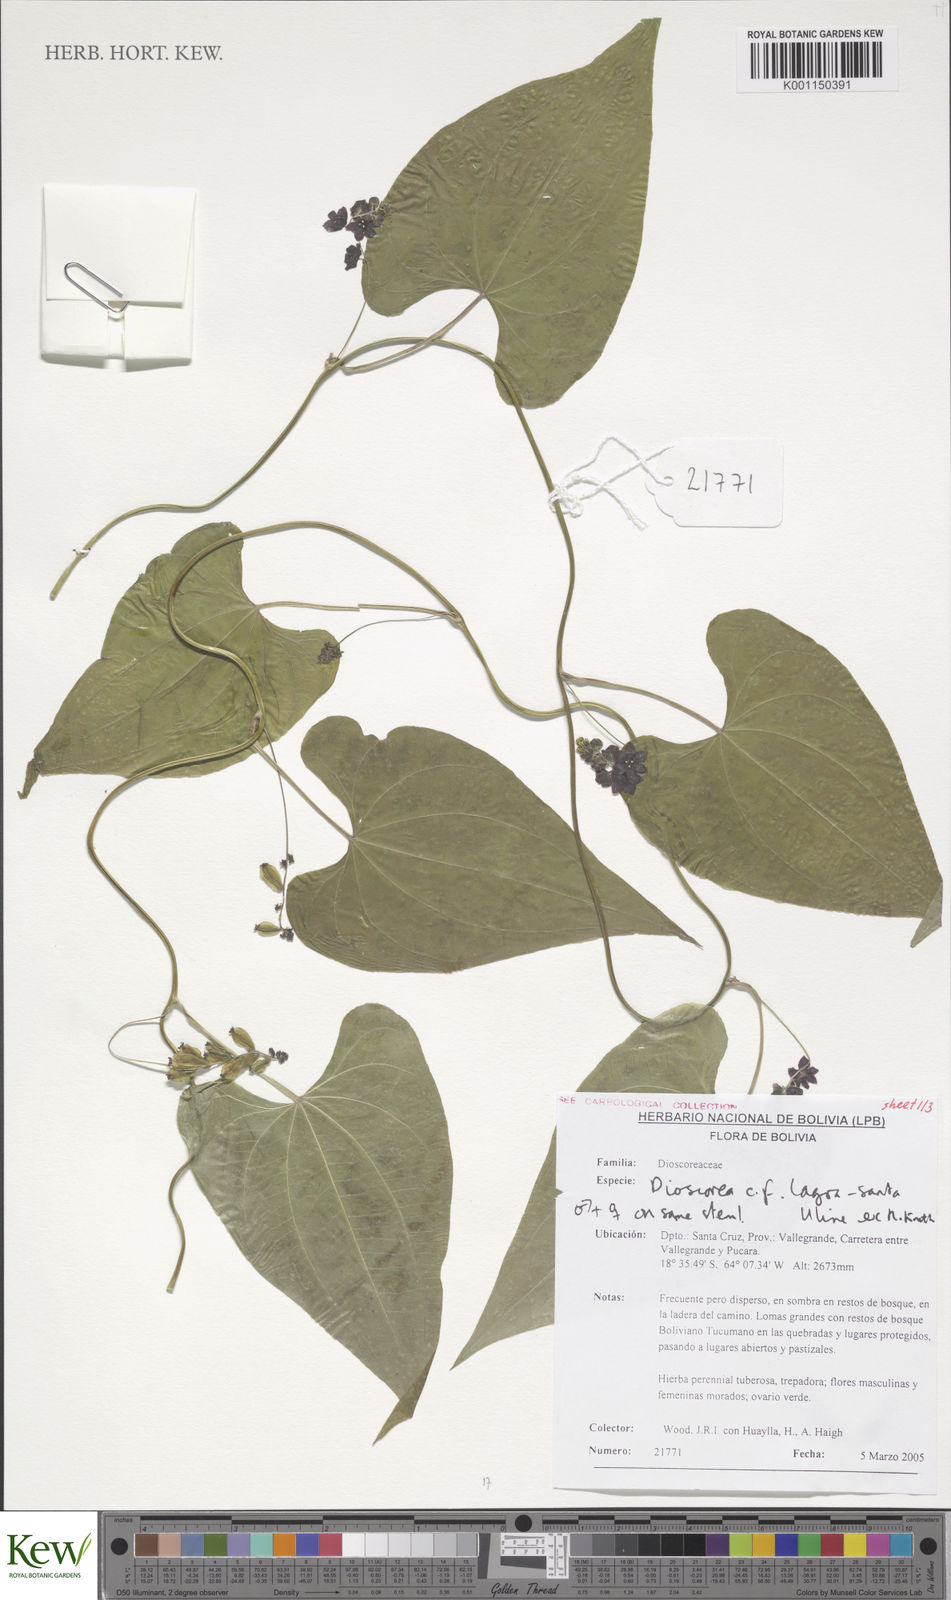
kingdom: Plantae
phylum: Tracheophyta
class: Liliopsida
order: Dioscoreales
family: Dioscoreaceae
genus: Dioscorea
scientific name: Dioscorea
